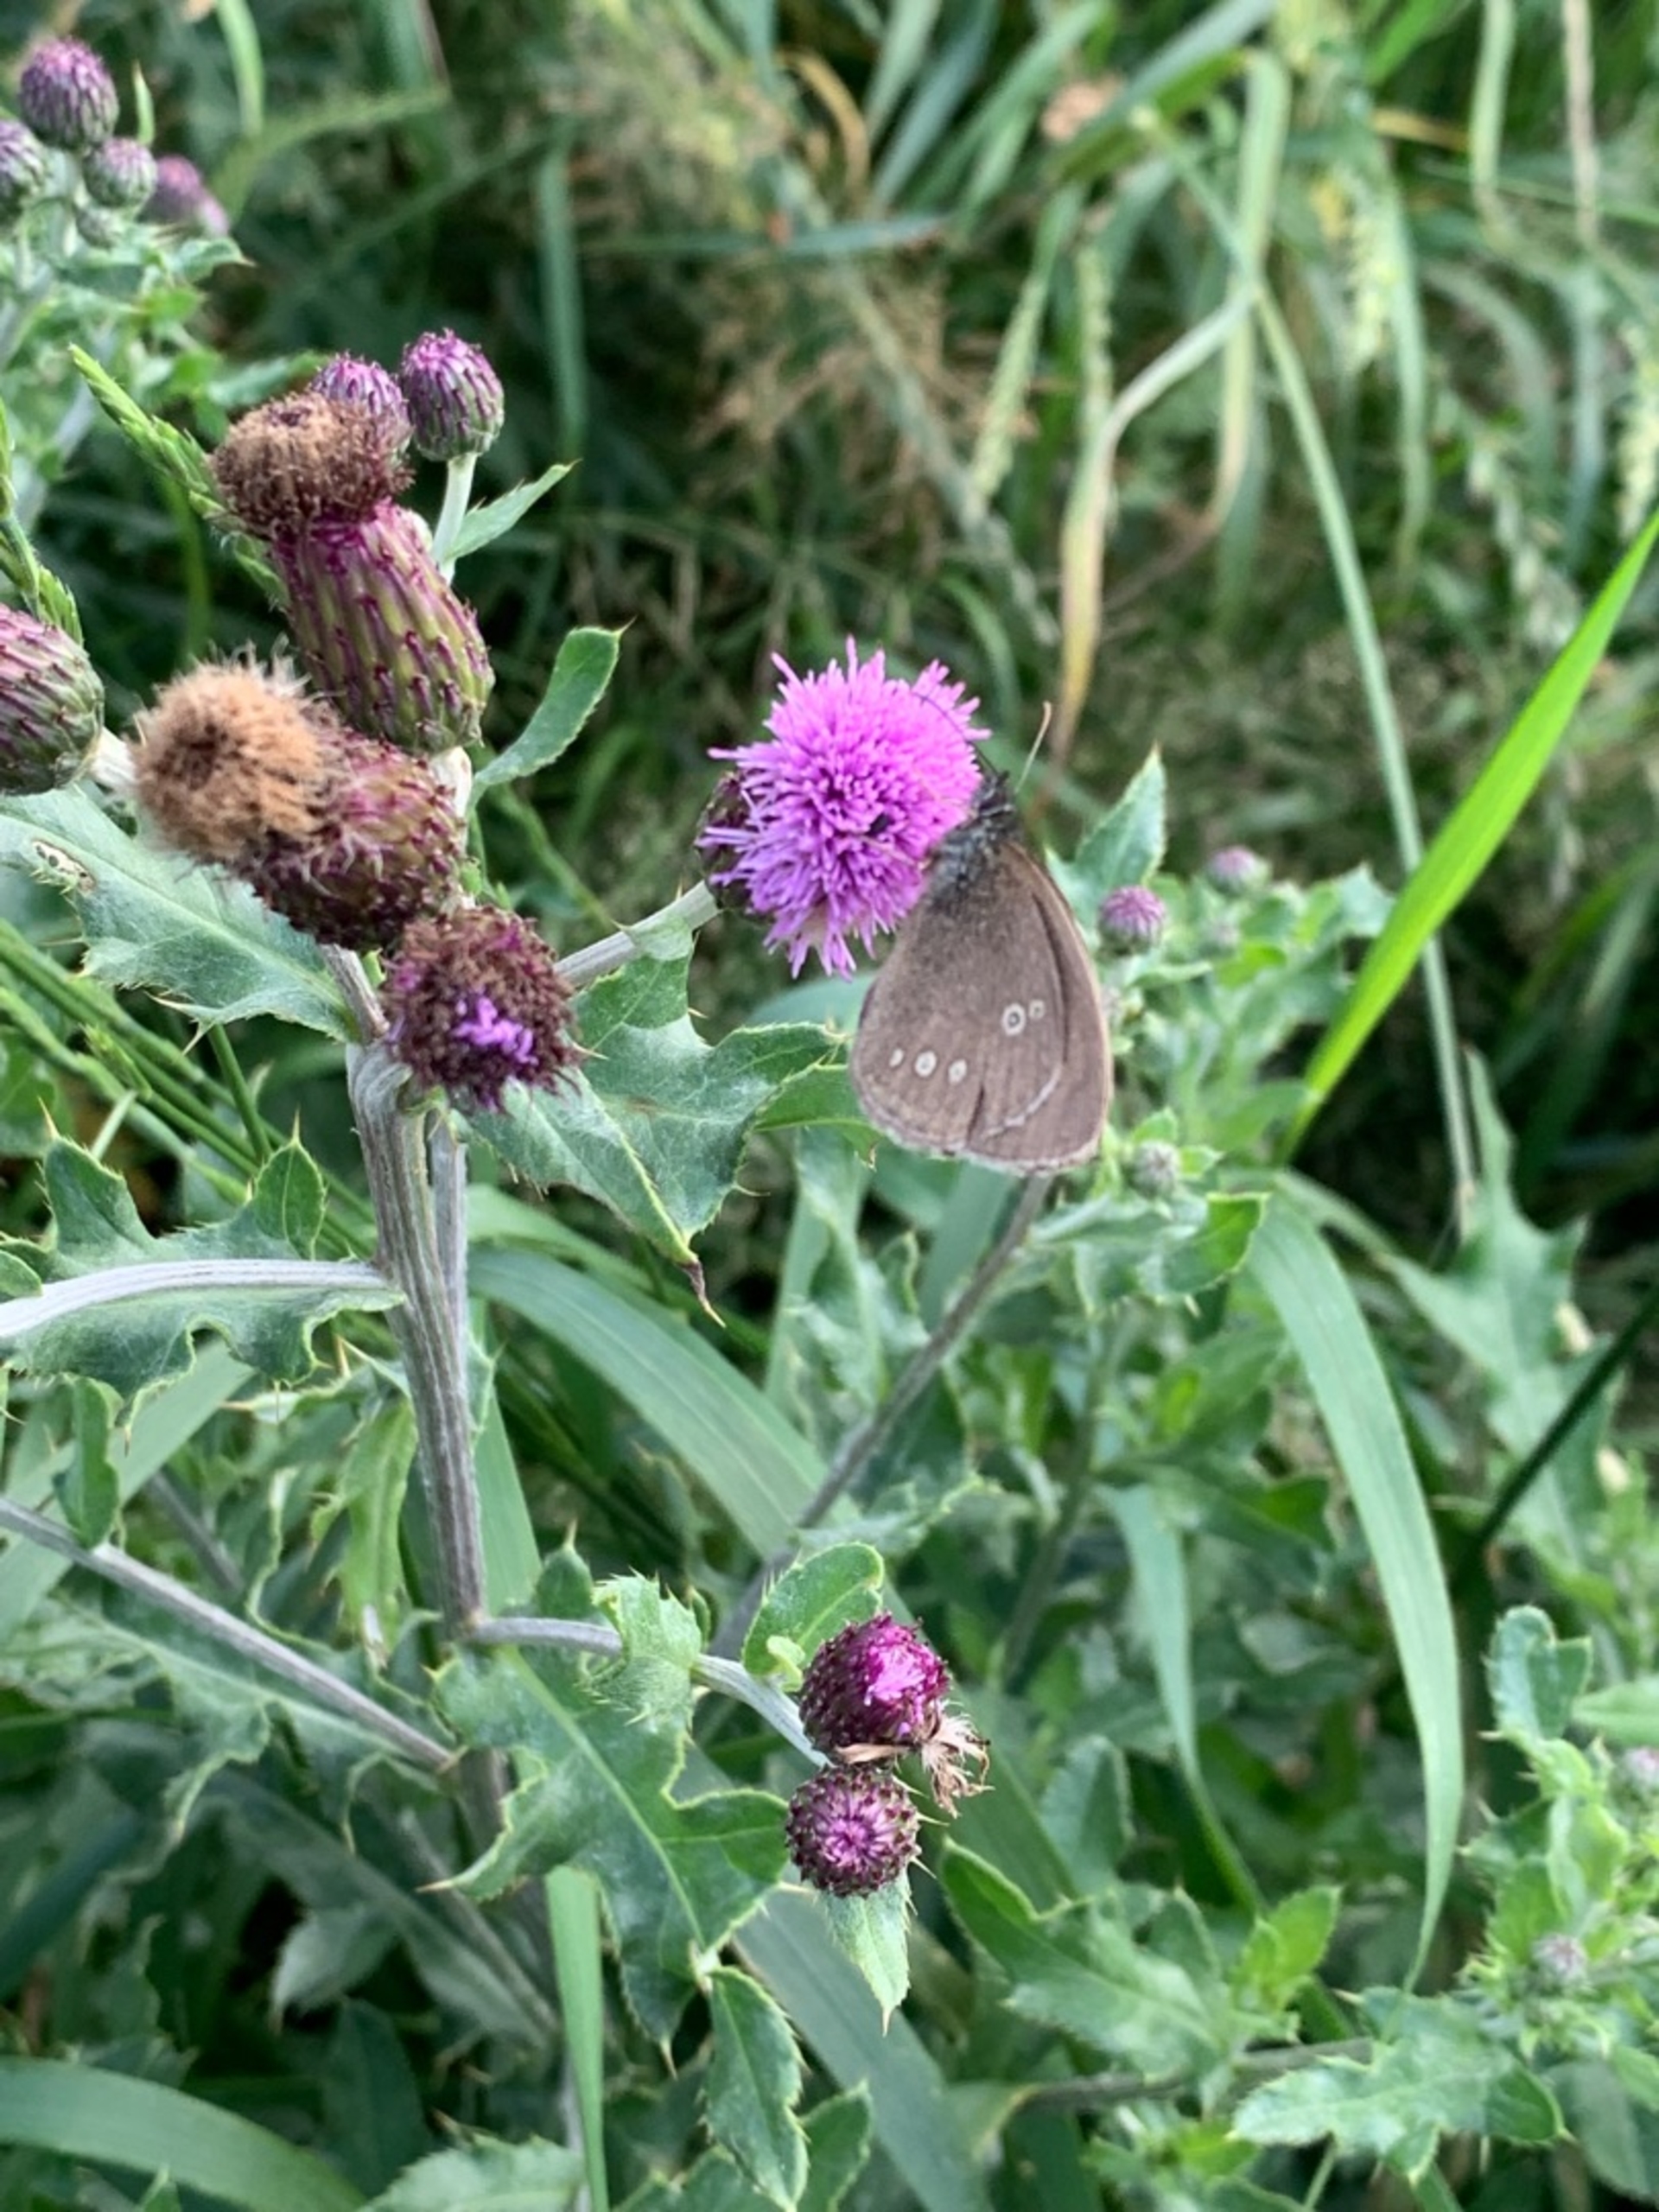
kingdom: Animalia
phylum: Arthropoda
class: Insecta
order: Lepidoptera
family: Nymphalidae
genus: Aphantopus
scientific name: Aphantopus hyperantus
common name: Engrandøje
